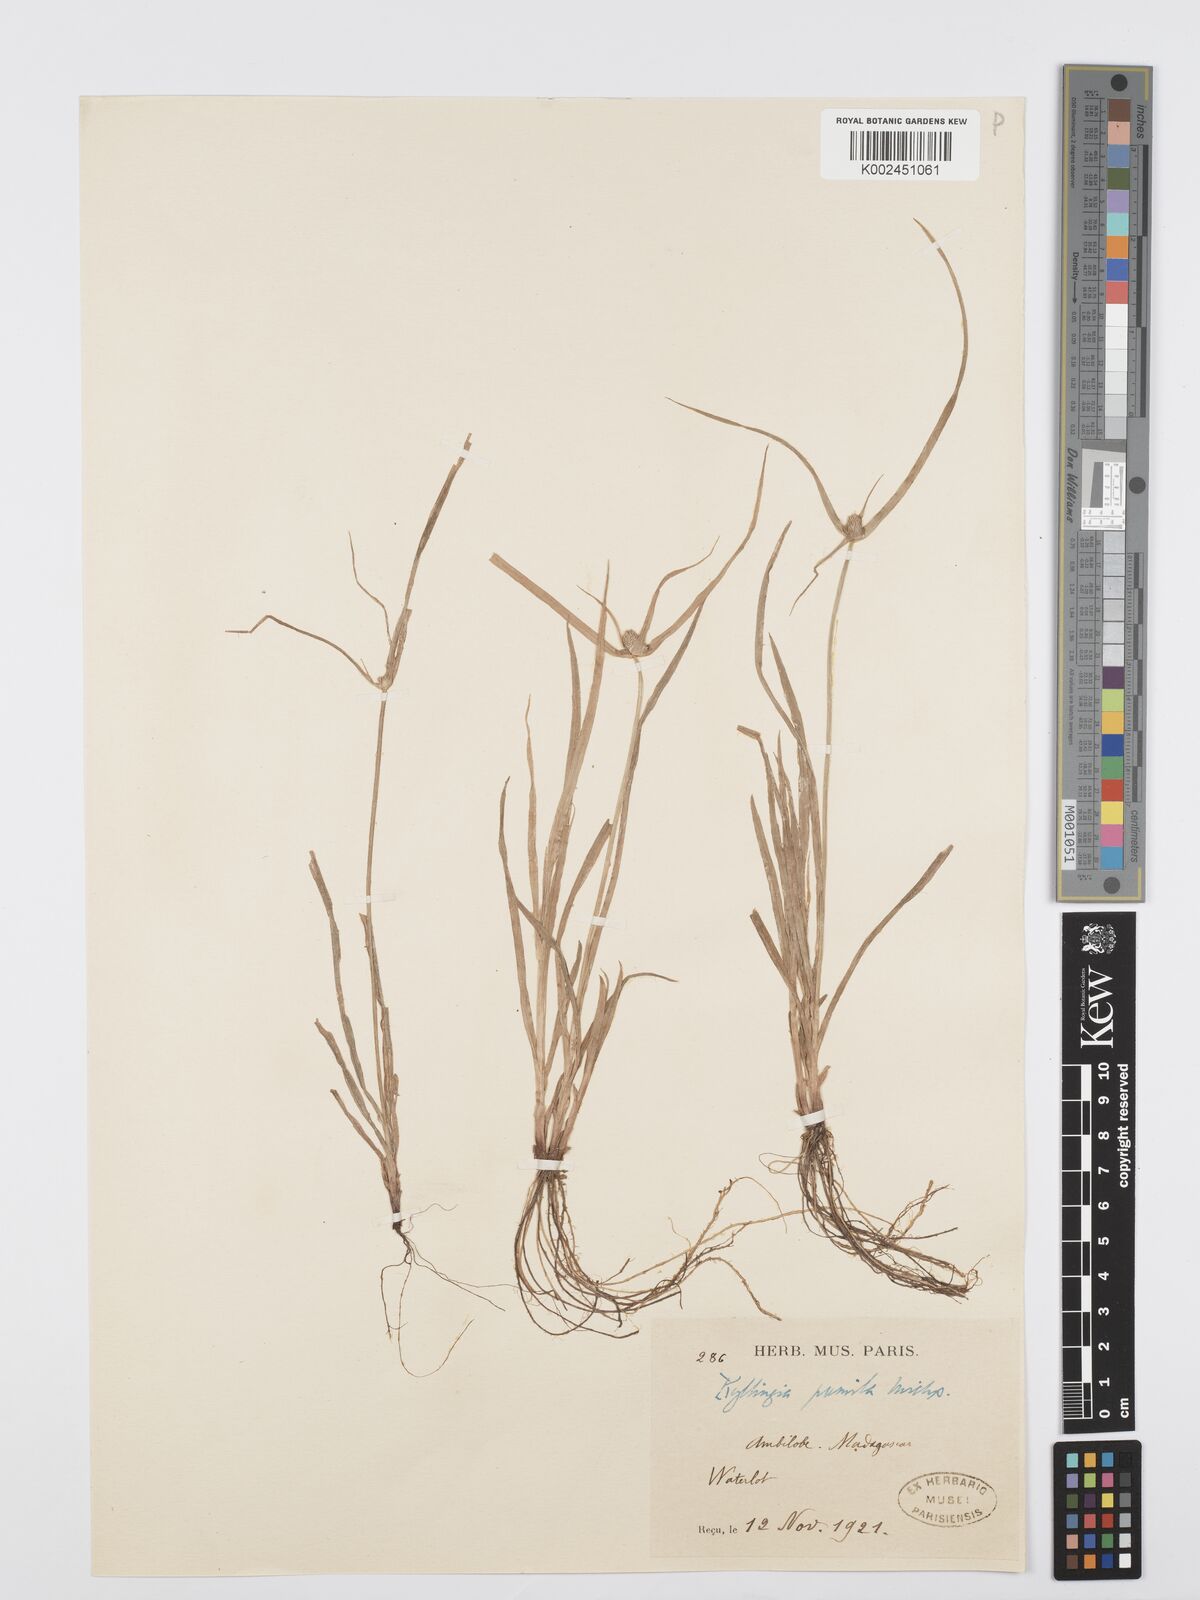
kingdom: Plantae
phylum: Tracheophyta
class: Liliopsida
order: Poales
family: Cyperaceae
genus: Cyperus
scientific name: Cyperus pumilus
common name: Low flatsedge
